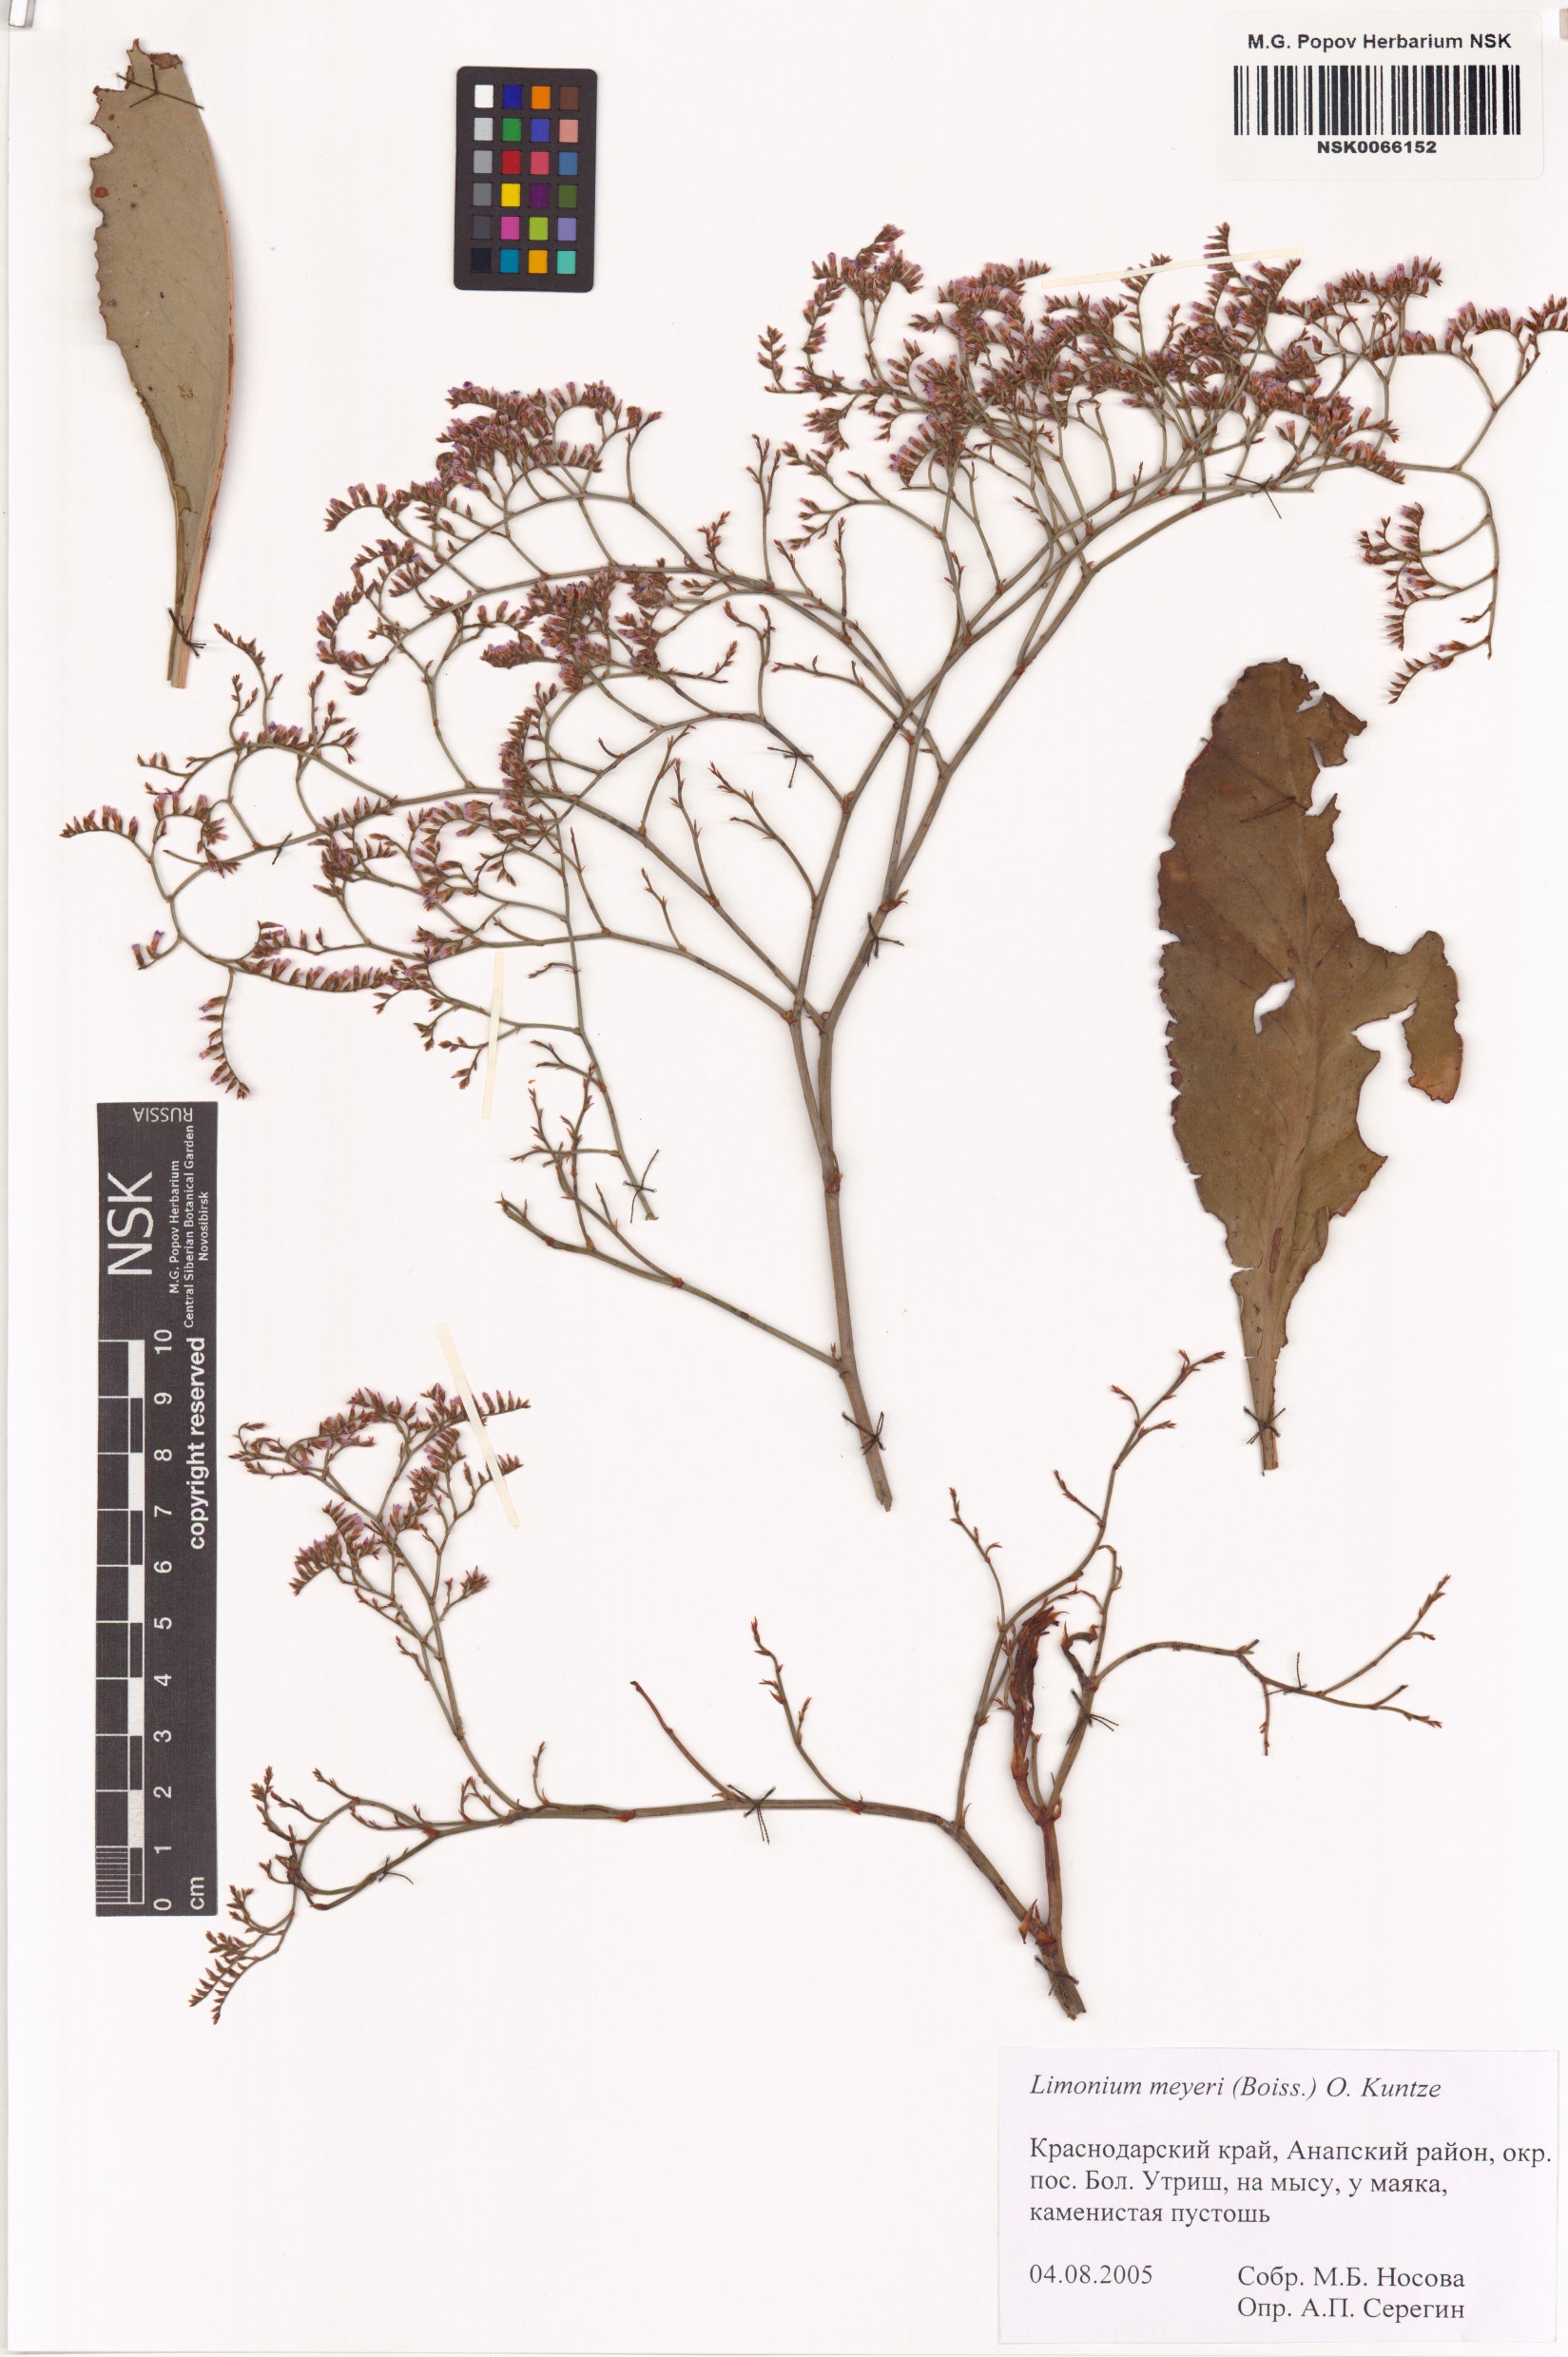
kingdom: Plantae
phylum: Tracheophyta
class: Magnoliopsida
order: Caryophyllales
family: Plumbaginaceae
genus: Limonium
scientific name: Limonium scoparium
